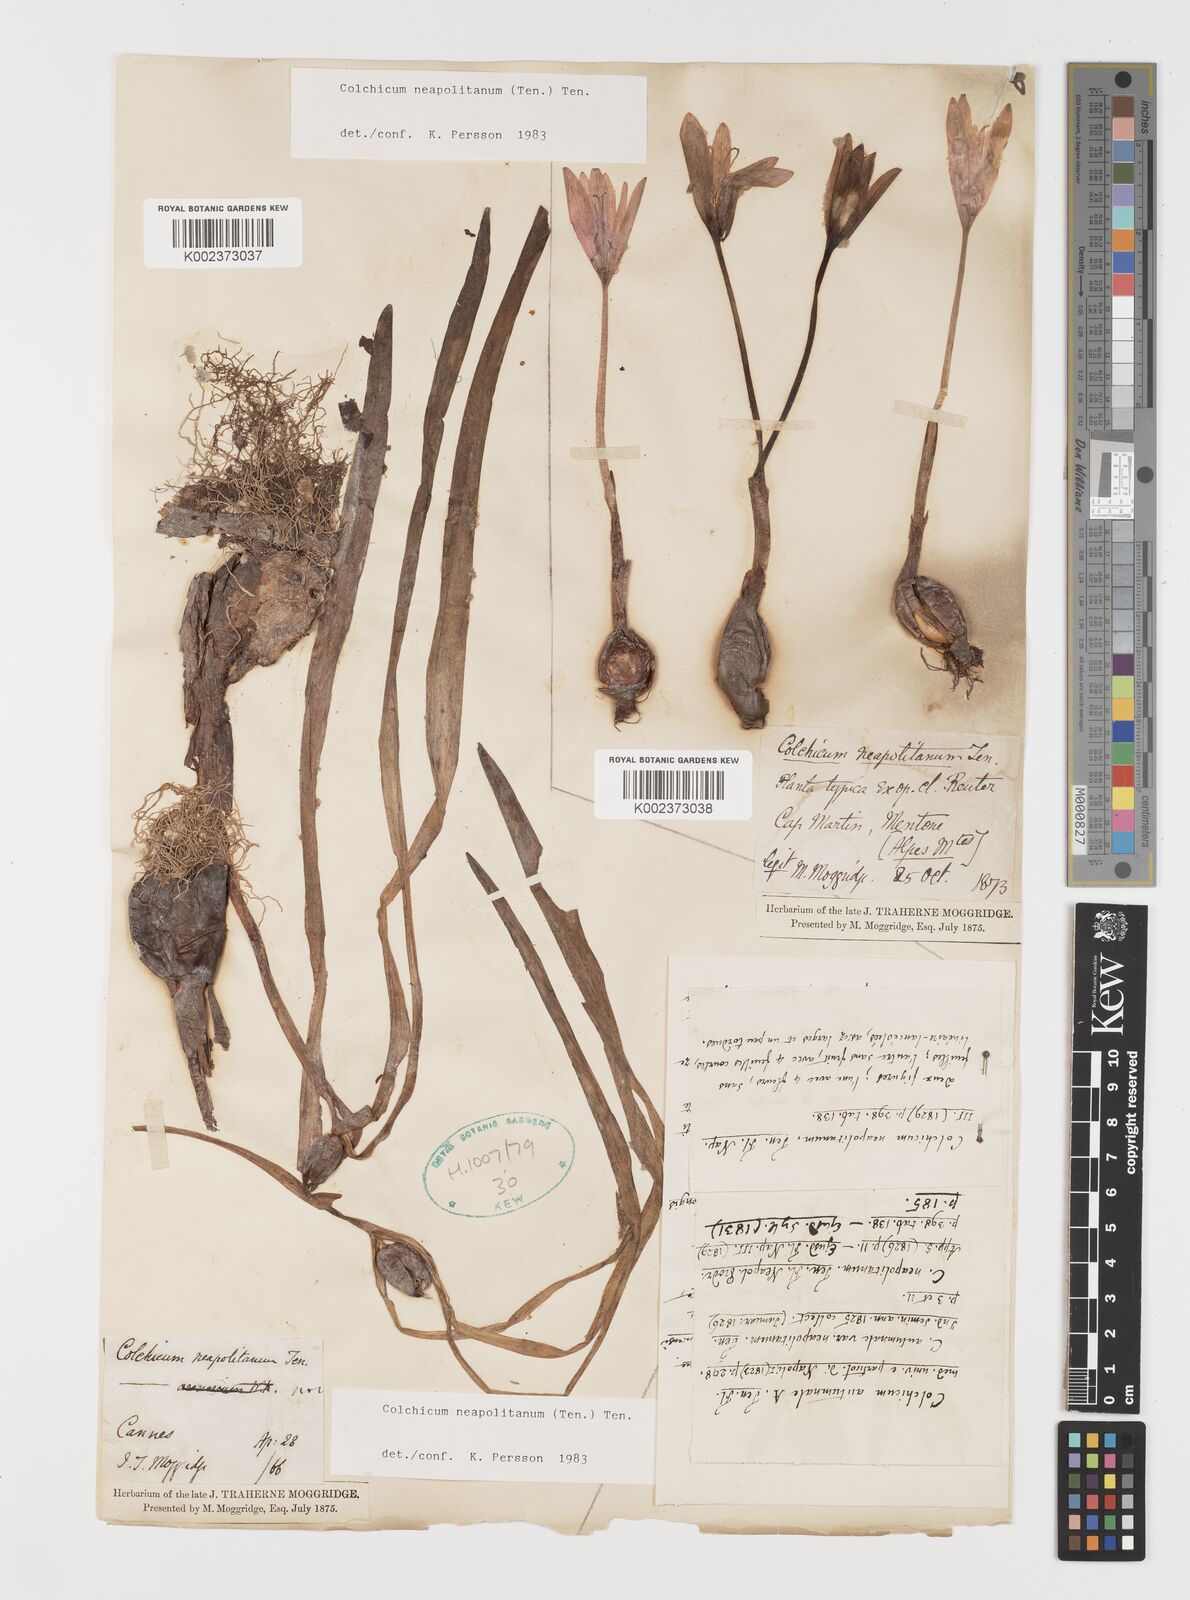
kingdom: Plantae
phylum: Tracheophyta
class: Liliopsida
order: Liliales
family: Colchicaceae
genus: Colchicum
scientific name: Colchicum neapolitanum
